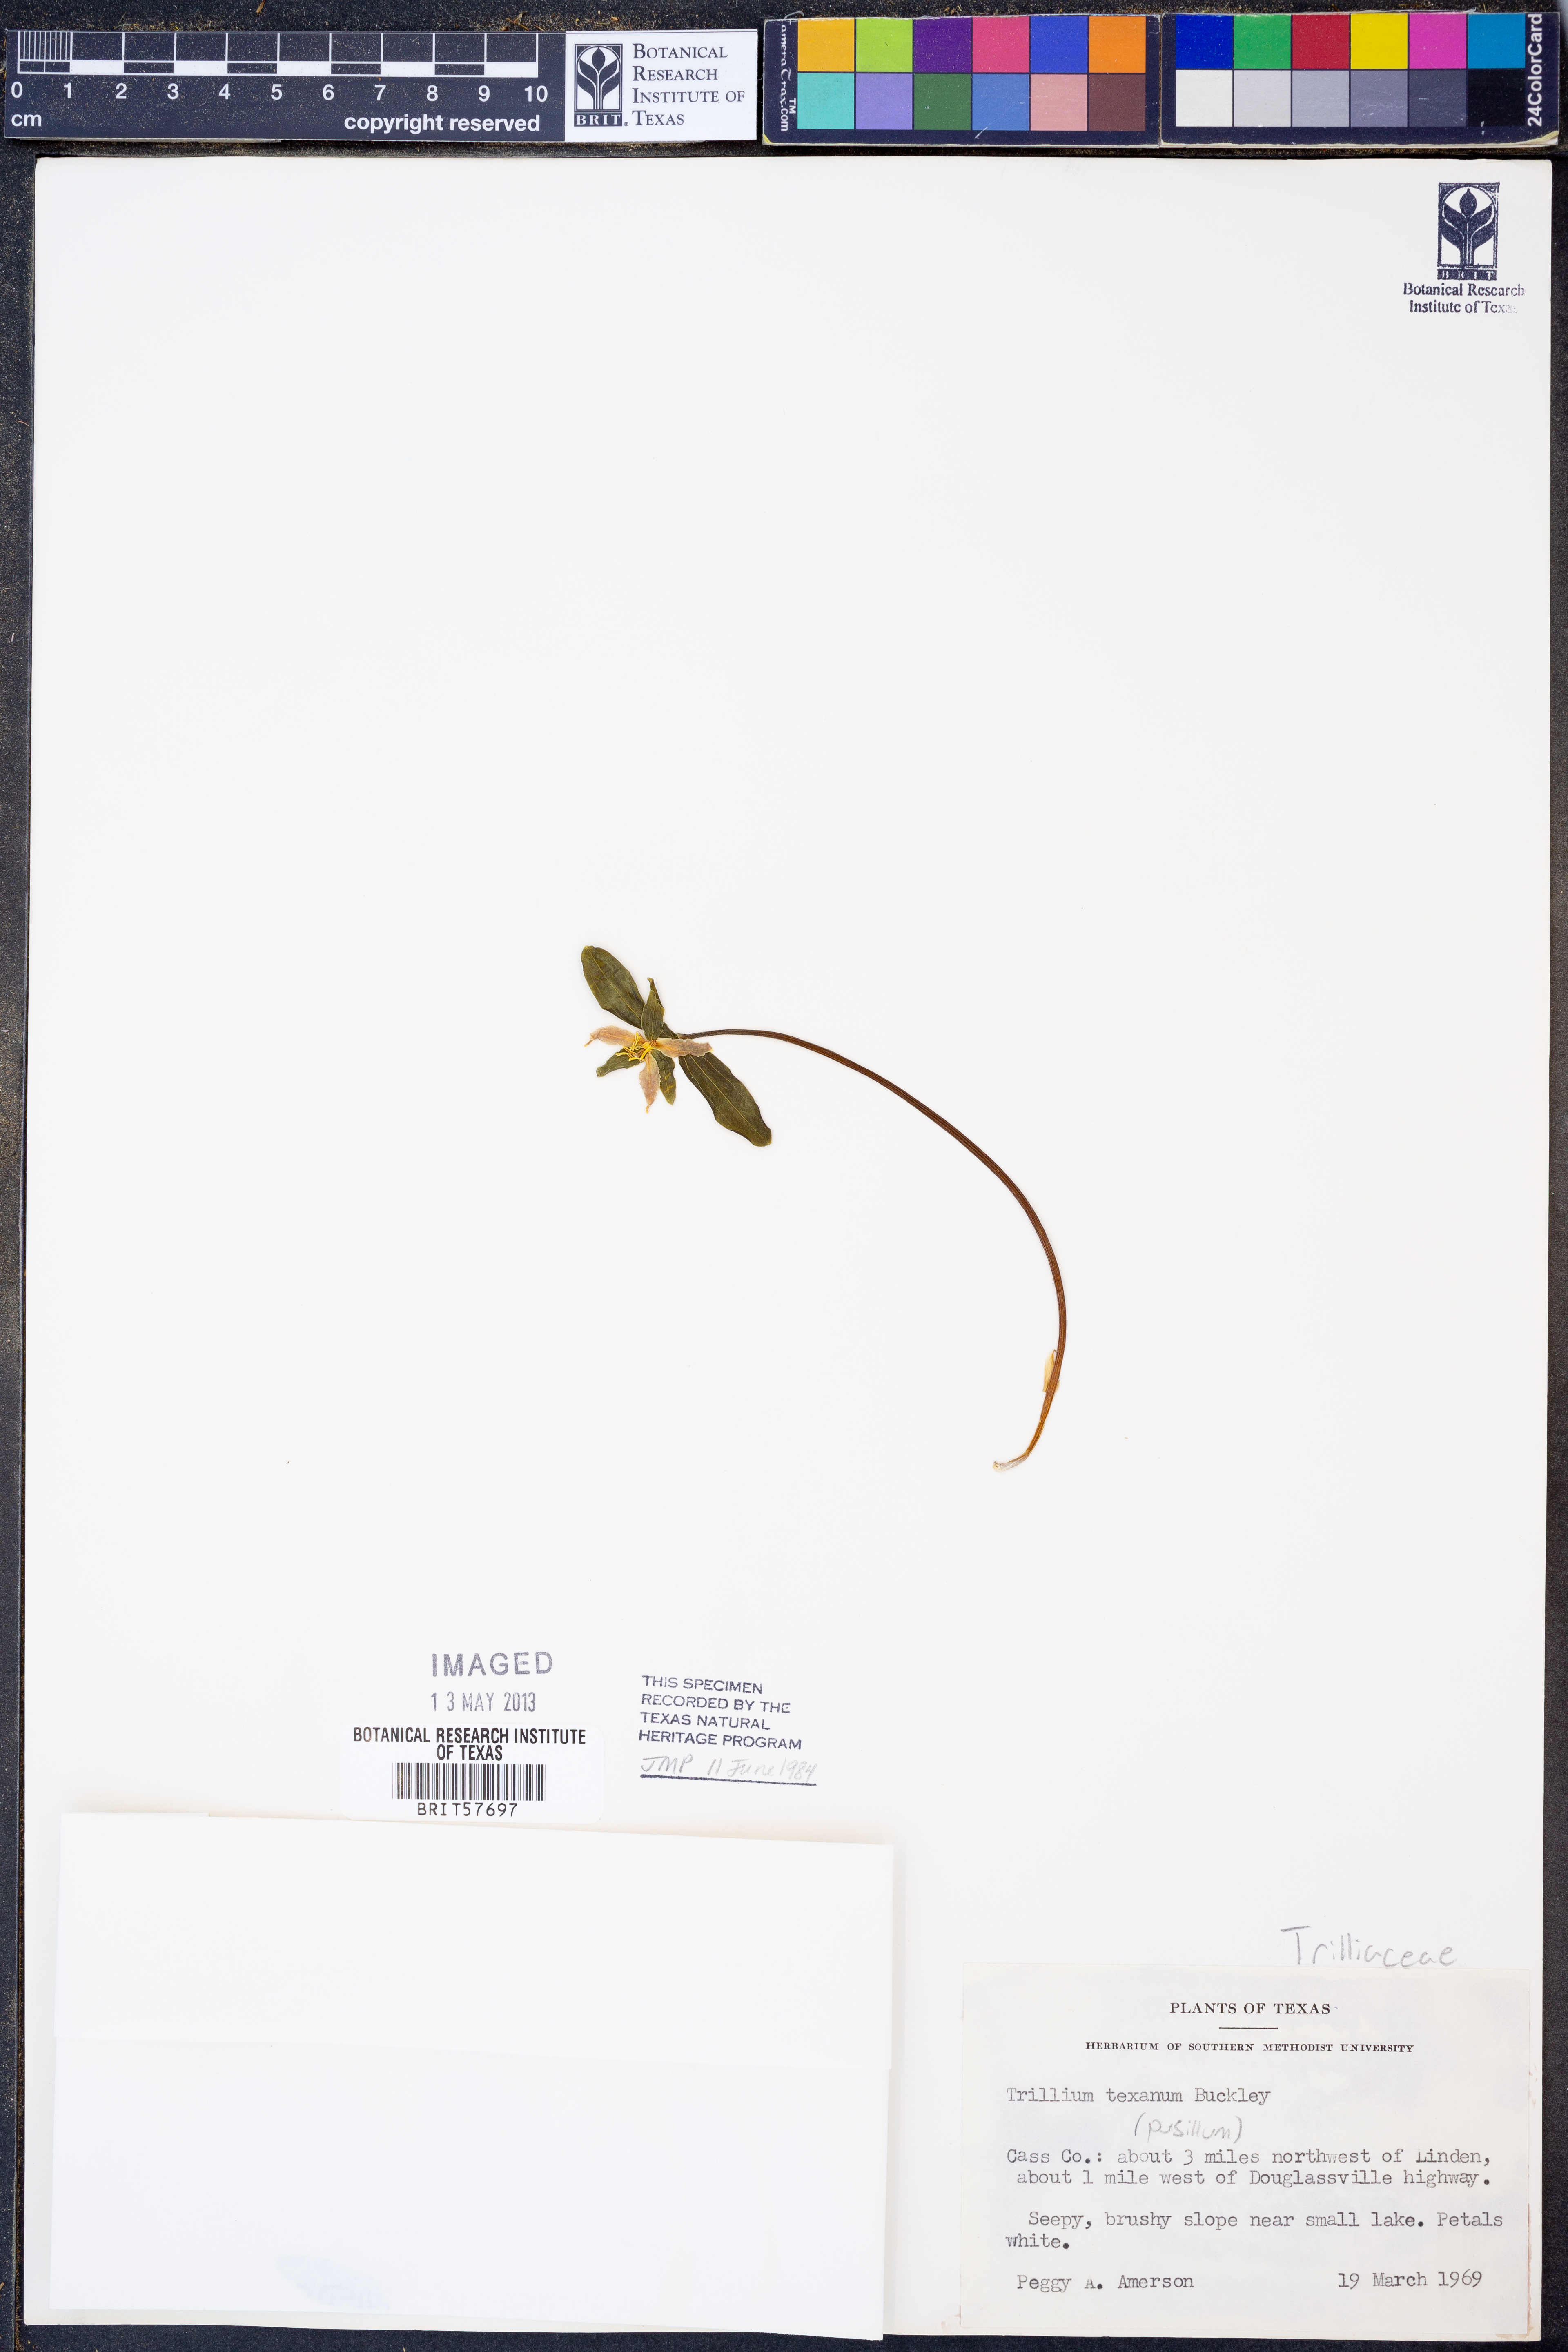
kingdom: Plantae
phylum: Tracheophyta
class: Liliopsida
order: Liliales
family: Melanthiaceae
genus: Trillium
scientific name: Trillium pusillum
